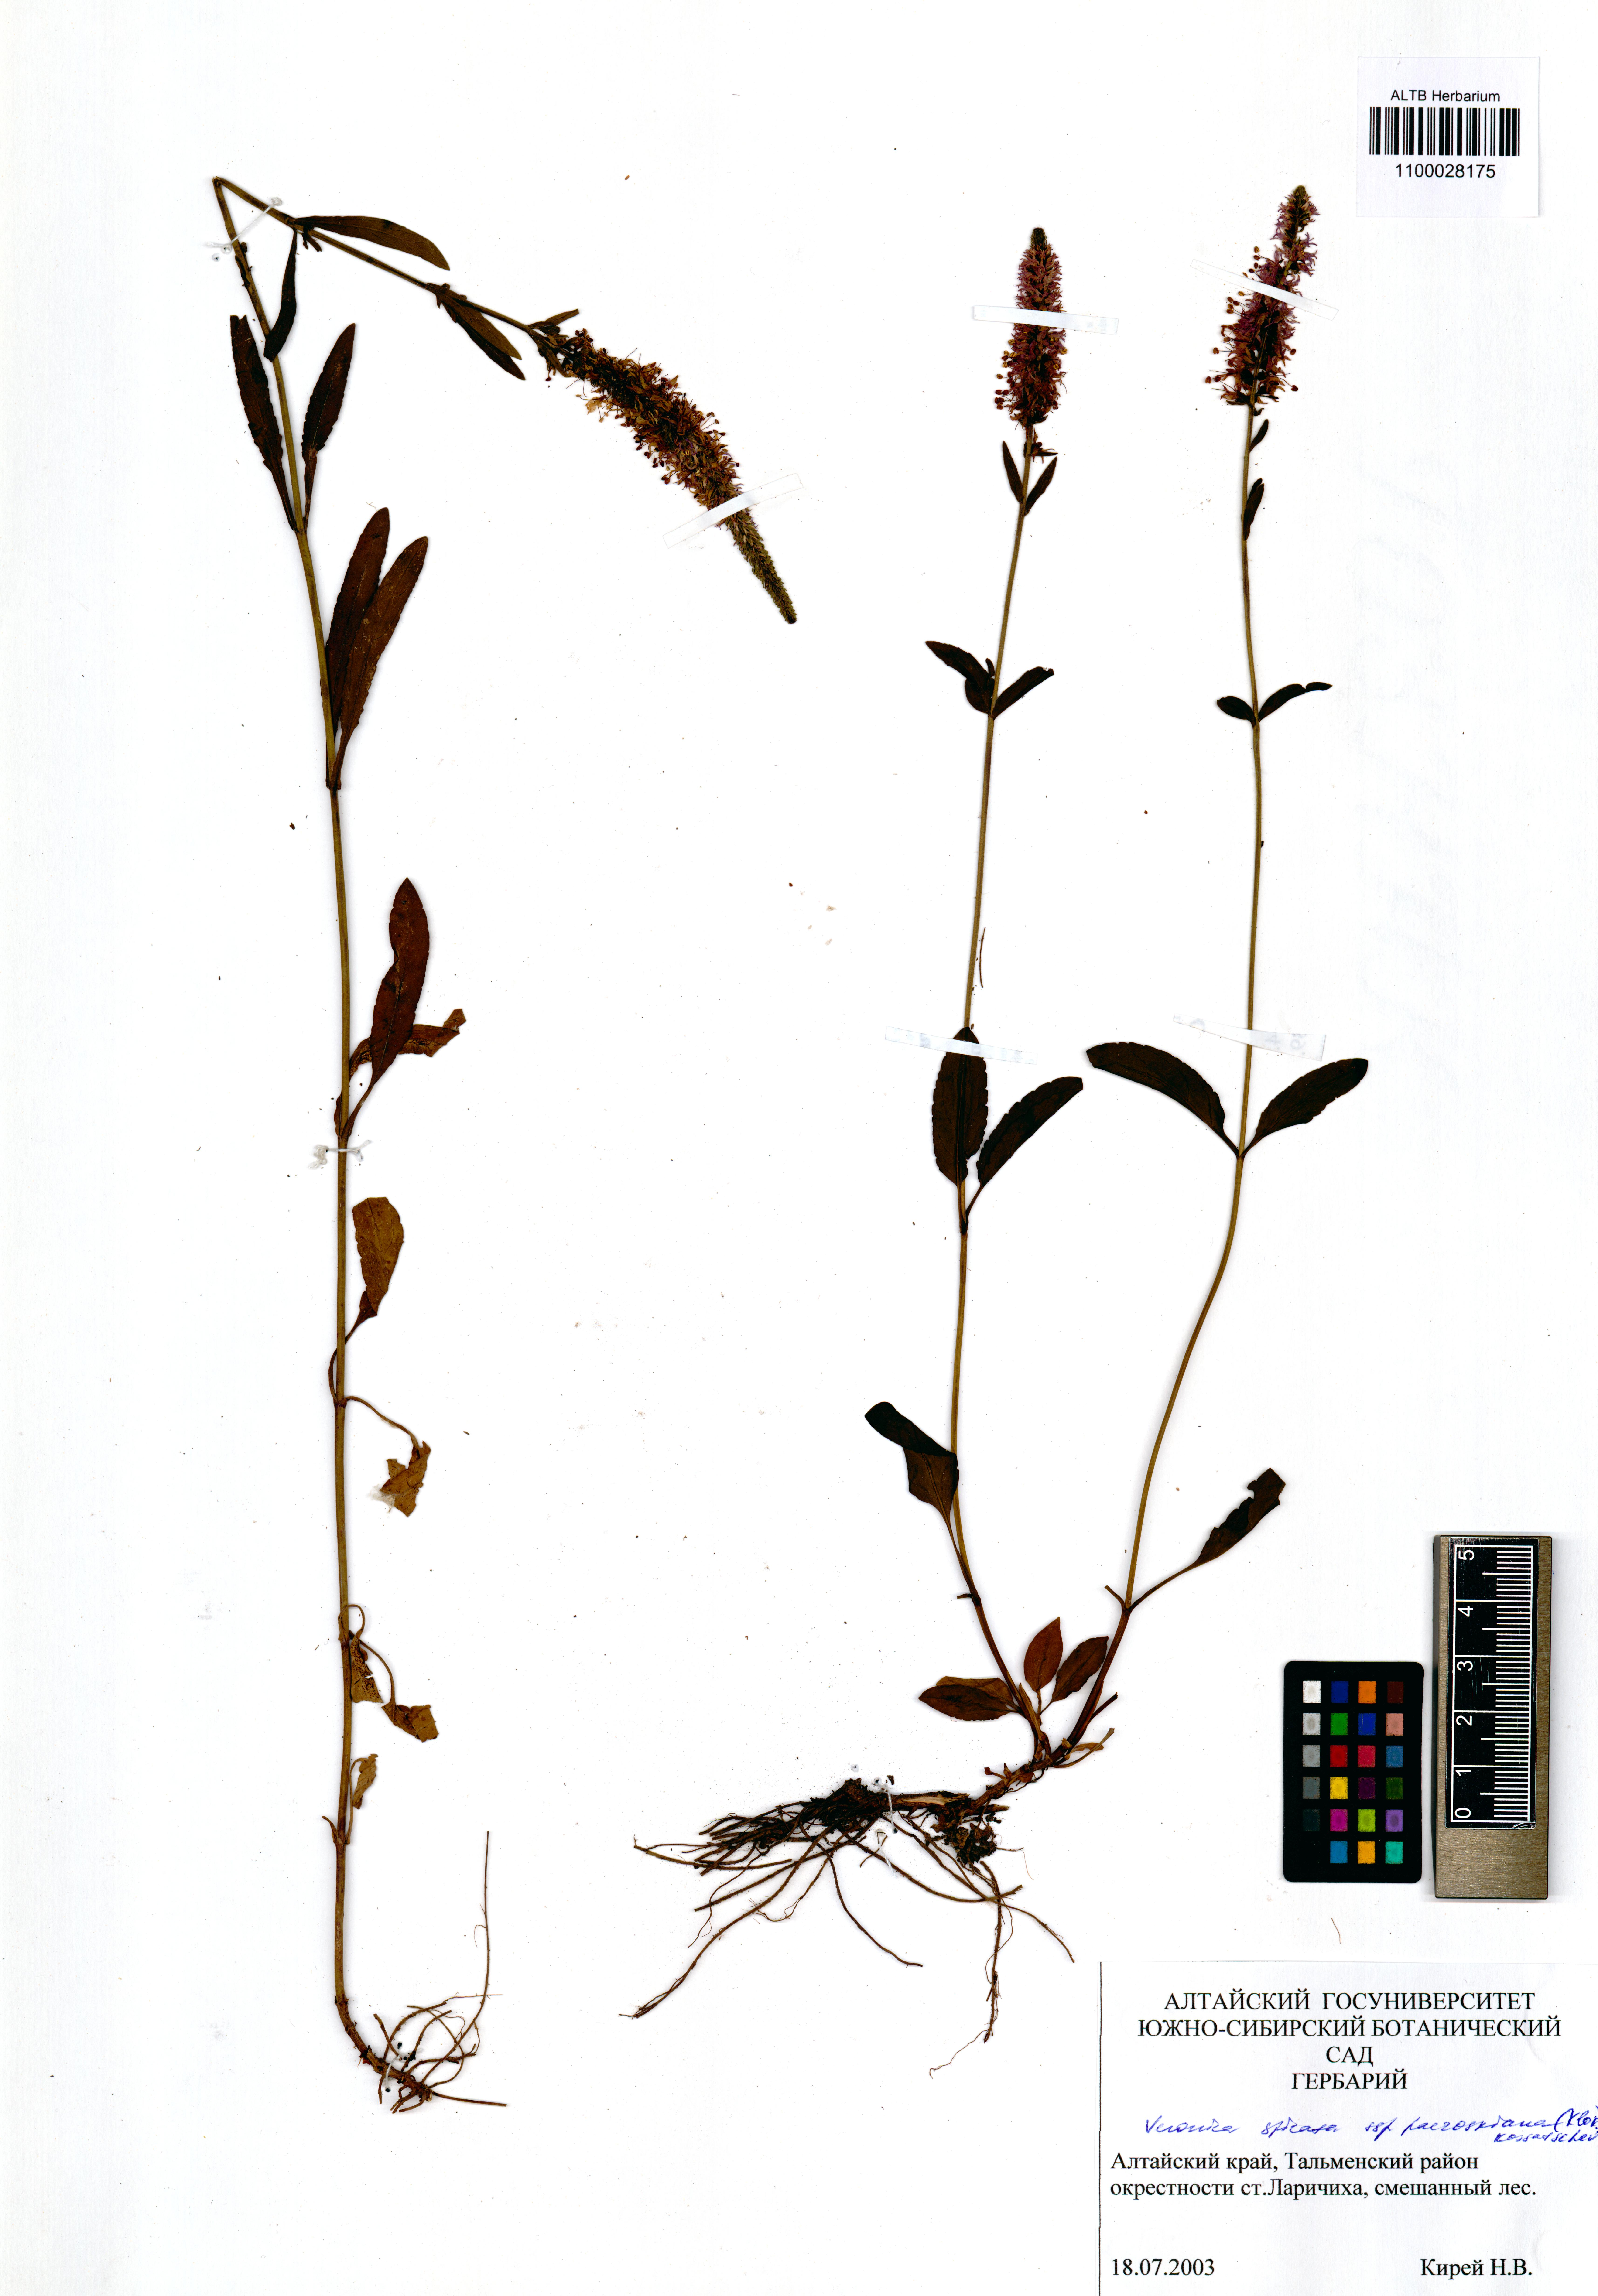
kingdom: Plantae
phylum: Tracheophyta
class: Magnoliopsida
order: Lamiales
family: Plantaginaceae
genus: Veronica
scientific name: Veronica spicata
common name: Spiked speedwell
